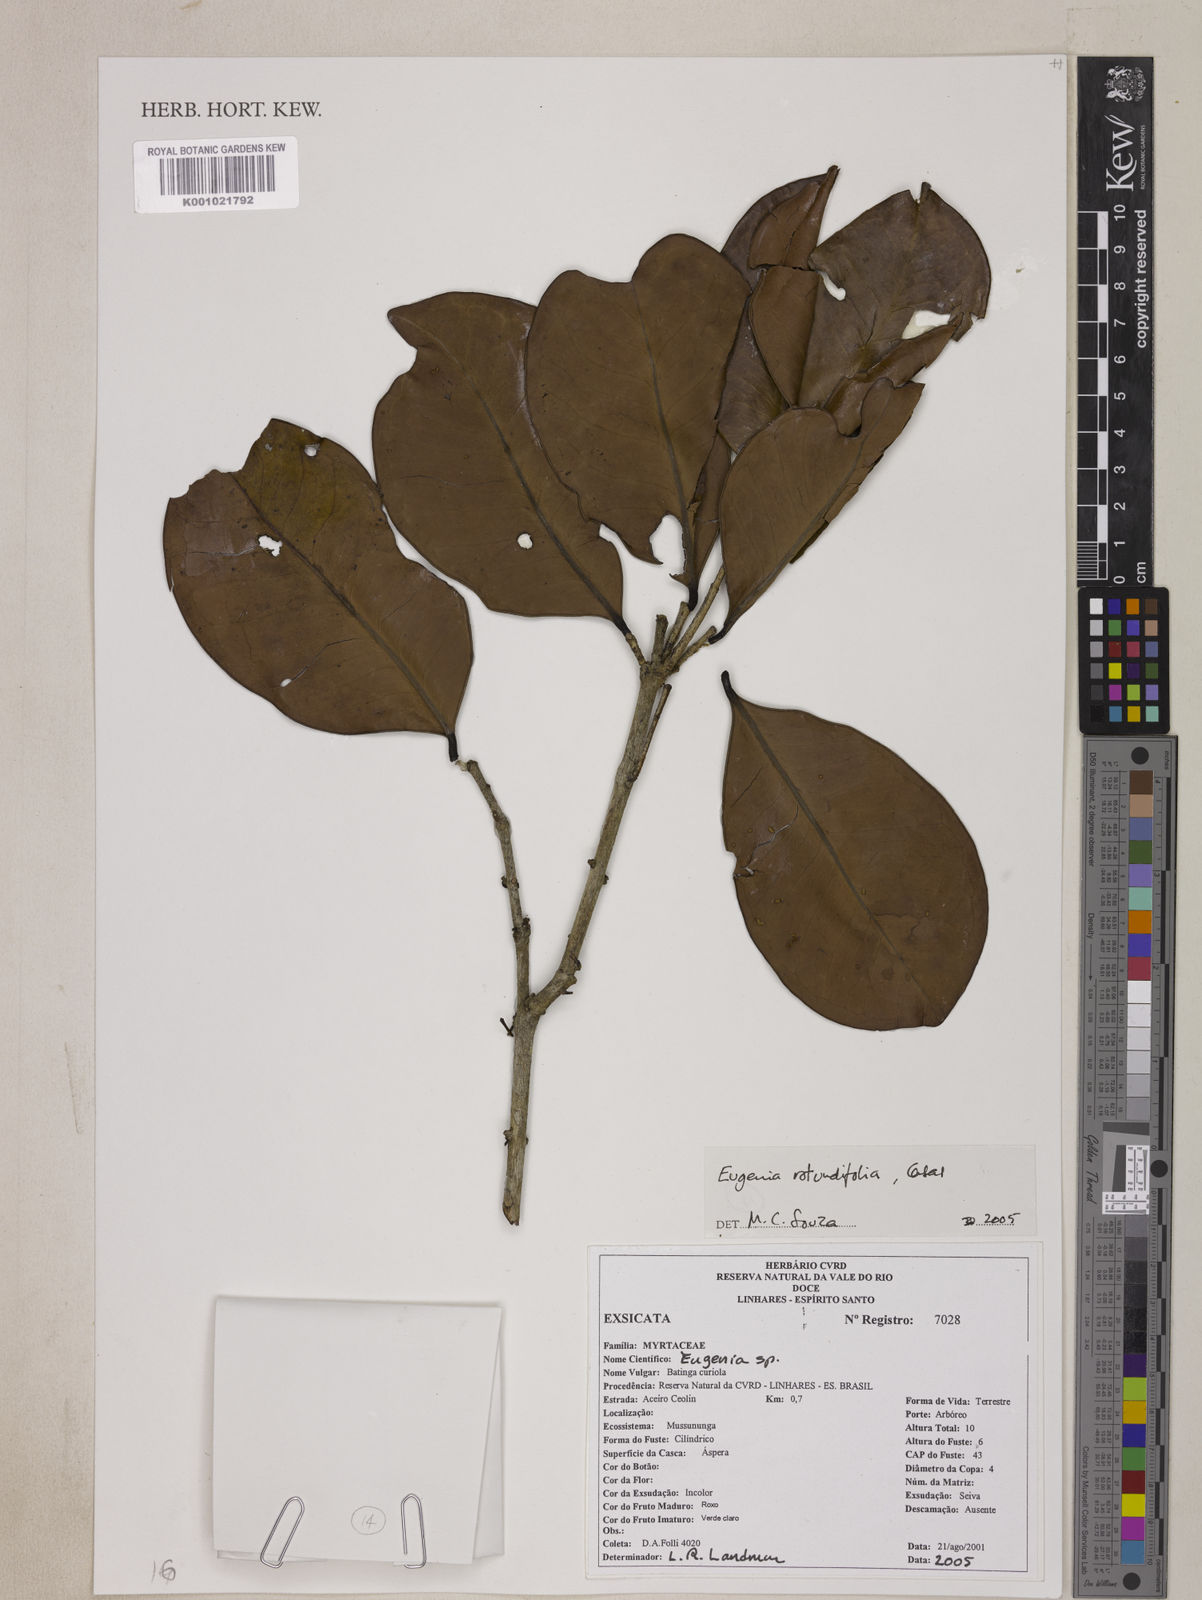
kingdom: Plantae
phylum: Tracheophyta
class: Magnoliopsida
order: Myrtales
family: Myrtaceae
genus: Eugenia
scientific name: Eugenia casarettoana
